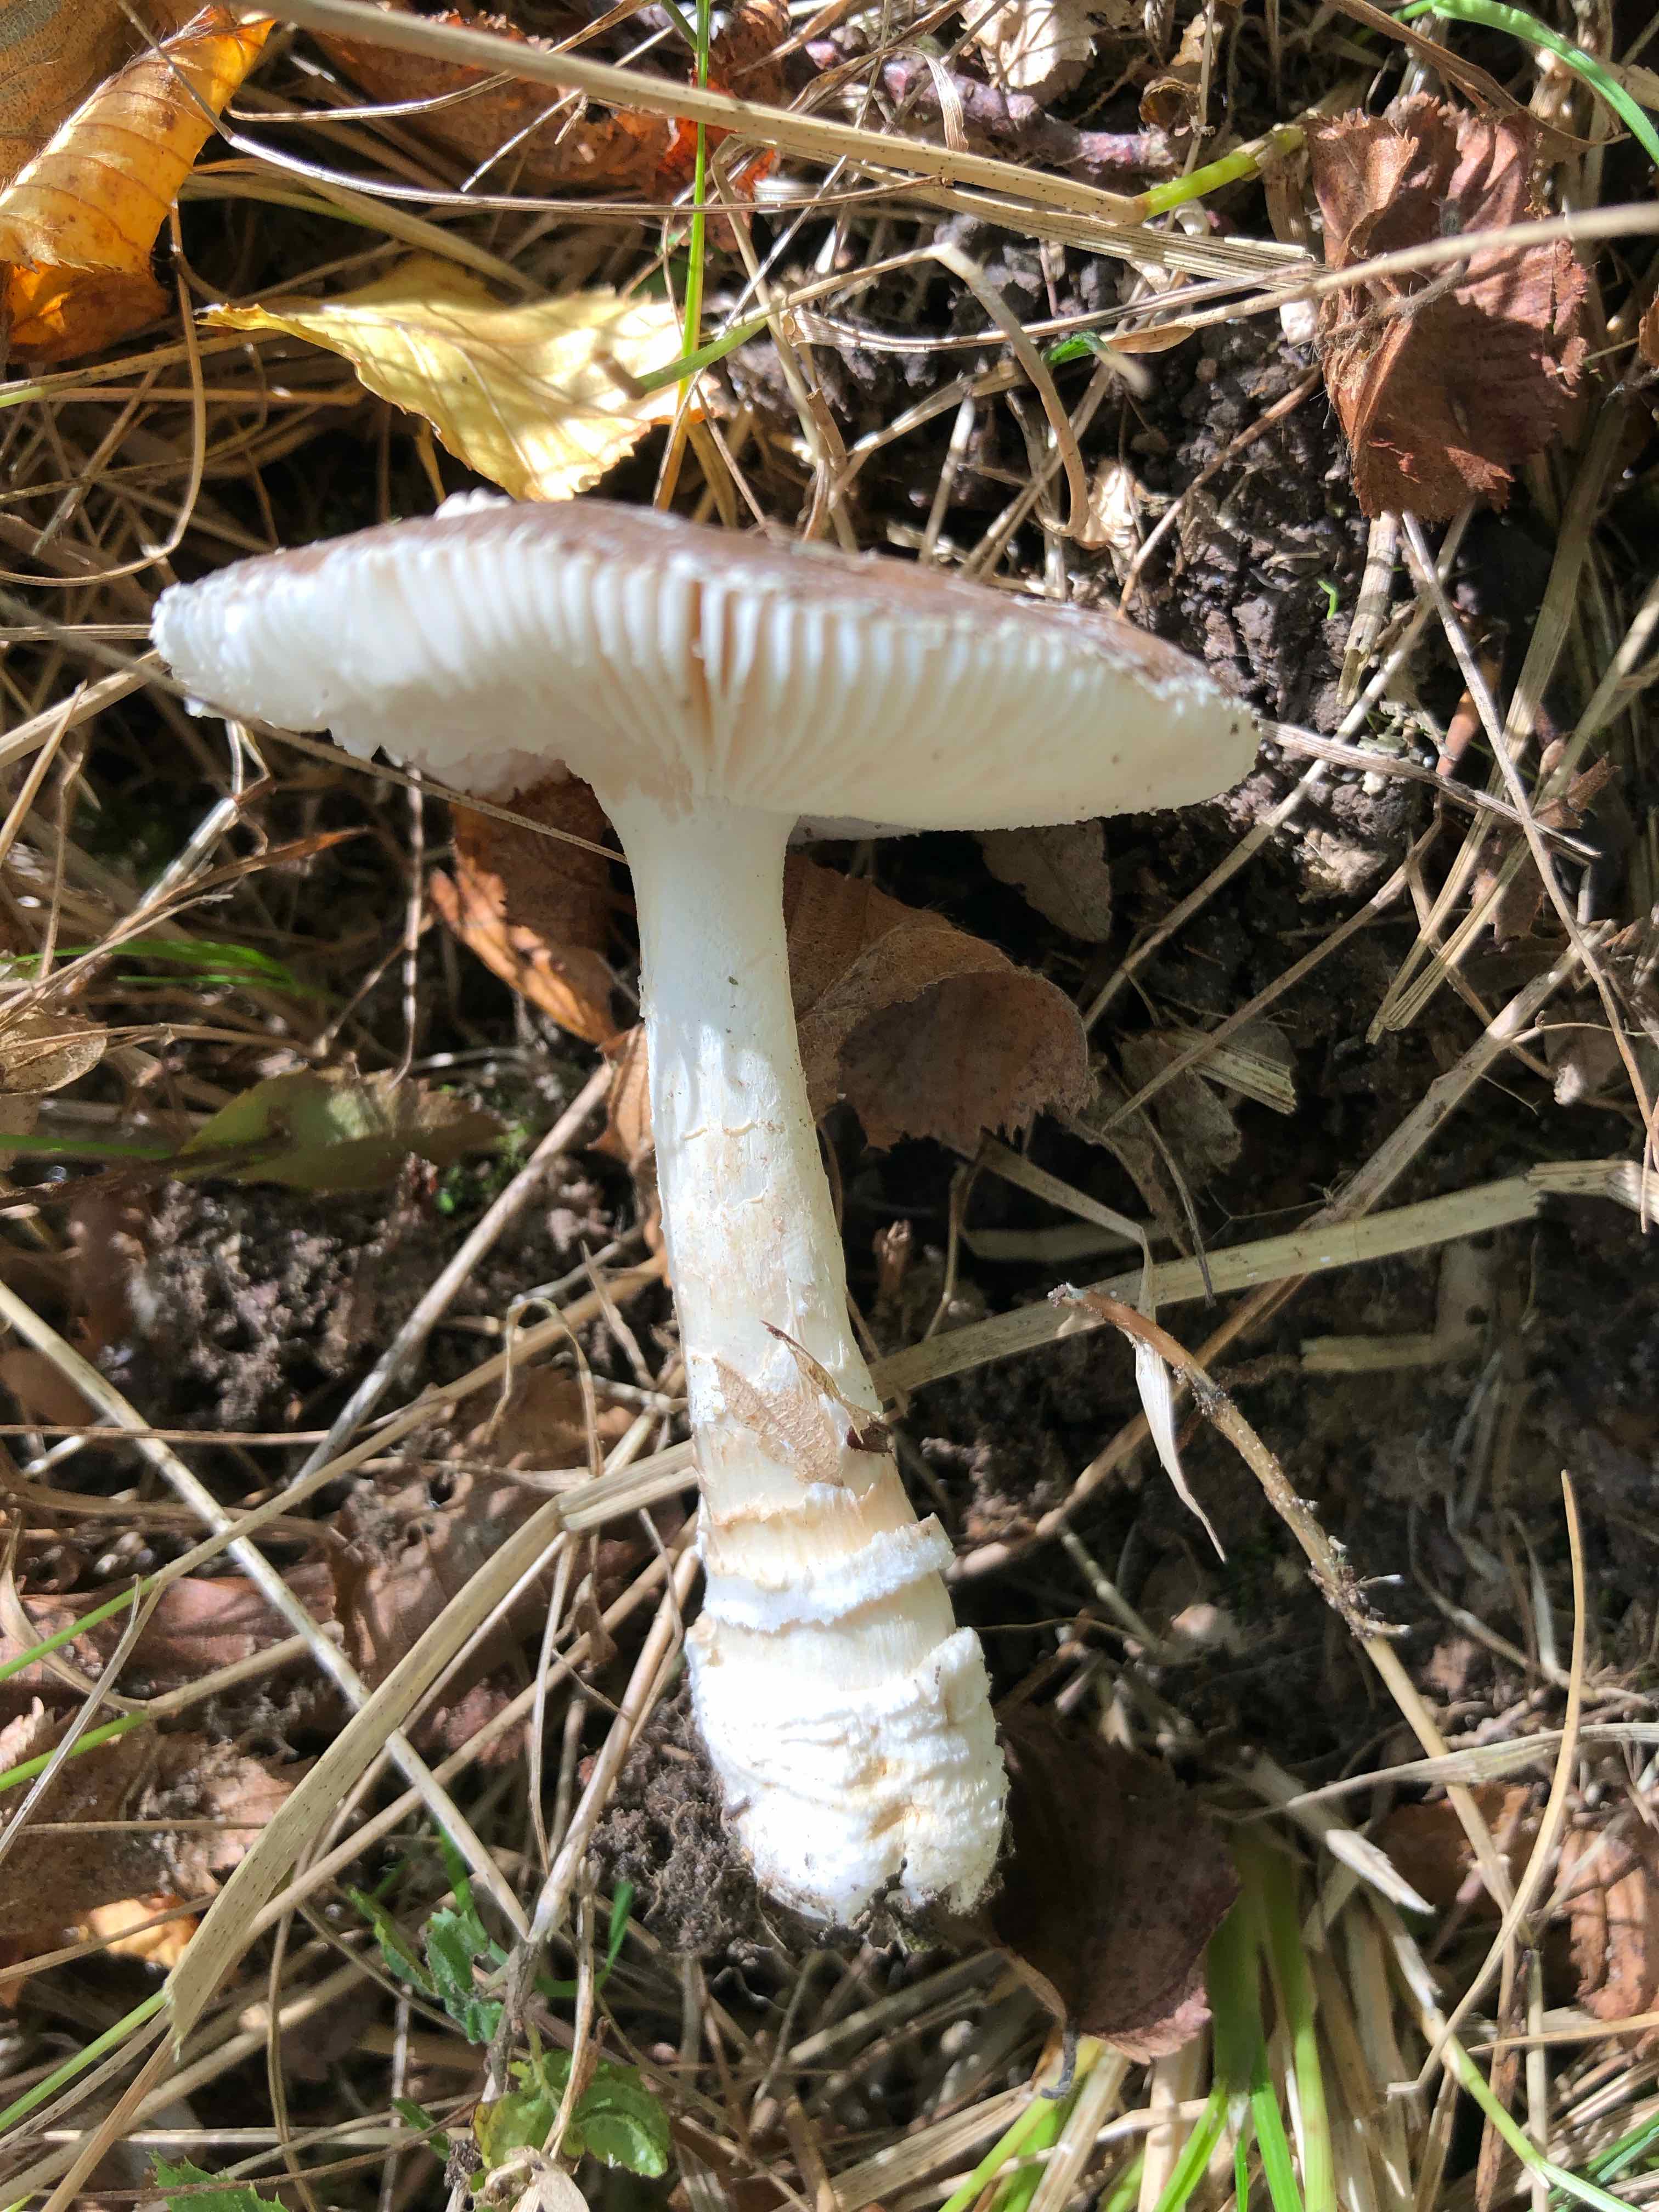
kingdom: Fungi
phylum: Basidiomycota
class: Agaricomycetes
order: Agaricales
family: Amanitaceae
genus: Amanita
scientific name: Amanita pantherina
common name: panter-fluesvamp
